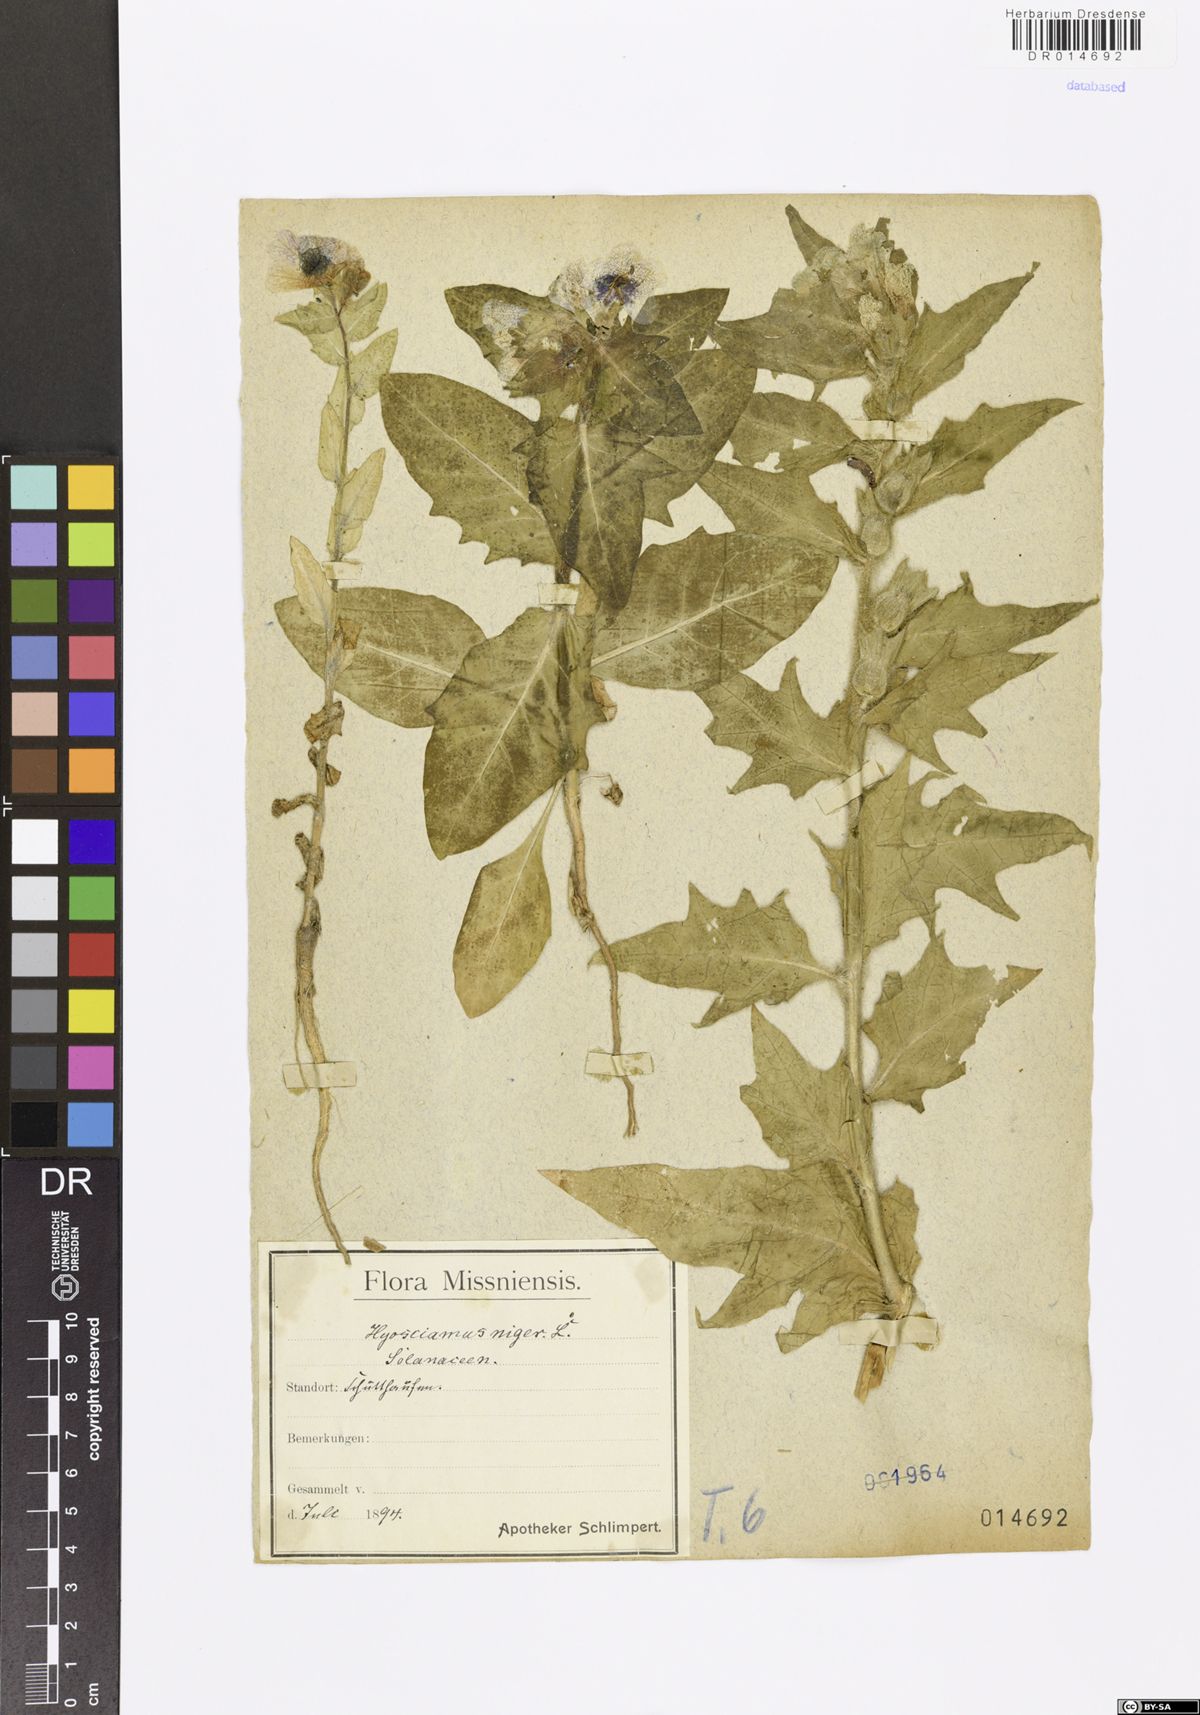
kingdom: Plantae
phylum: Tracheophyta
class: Magnoliopsida
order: Solanales
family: Solanaceae
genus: Hyoscyamus
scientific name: Hyoscyamus niger
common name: Henbane
